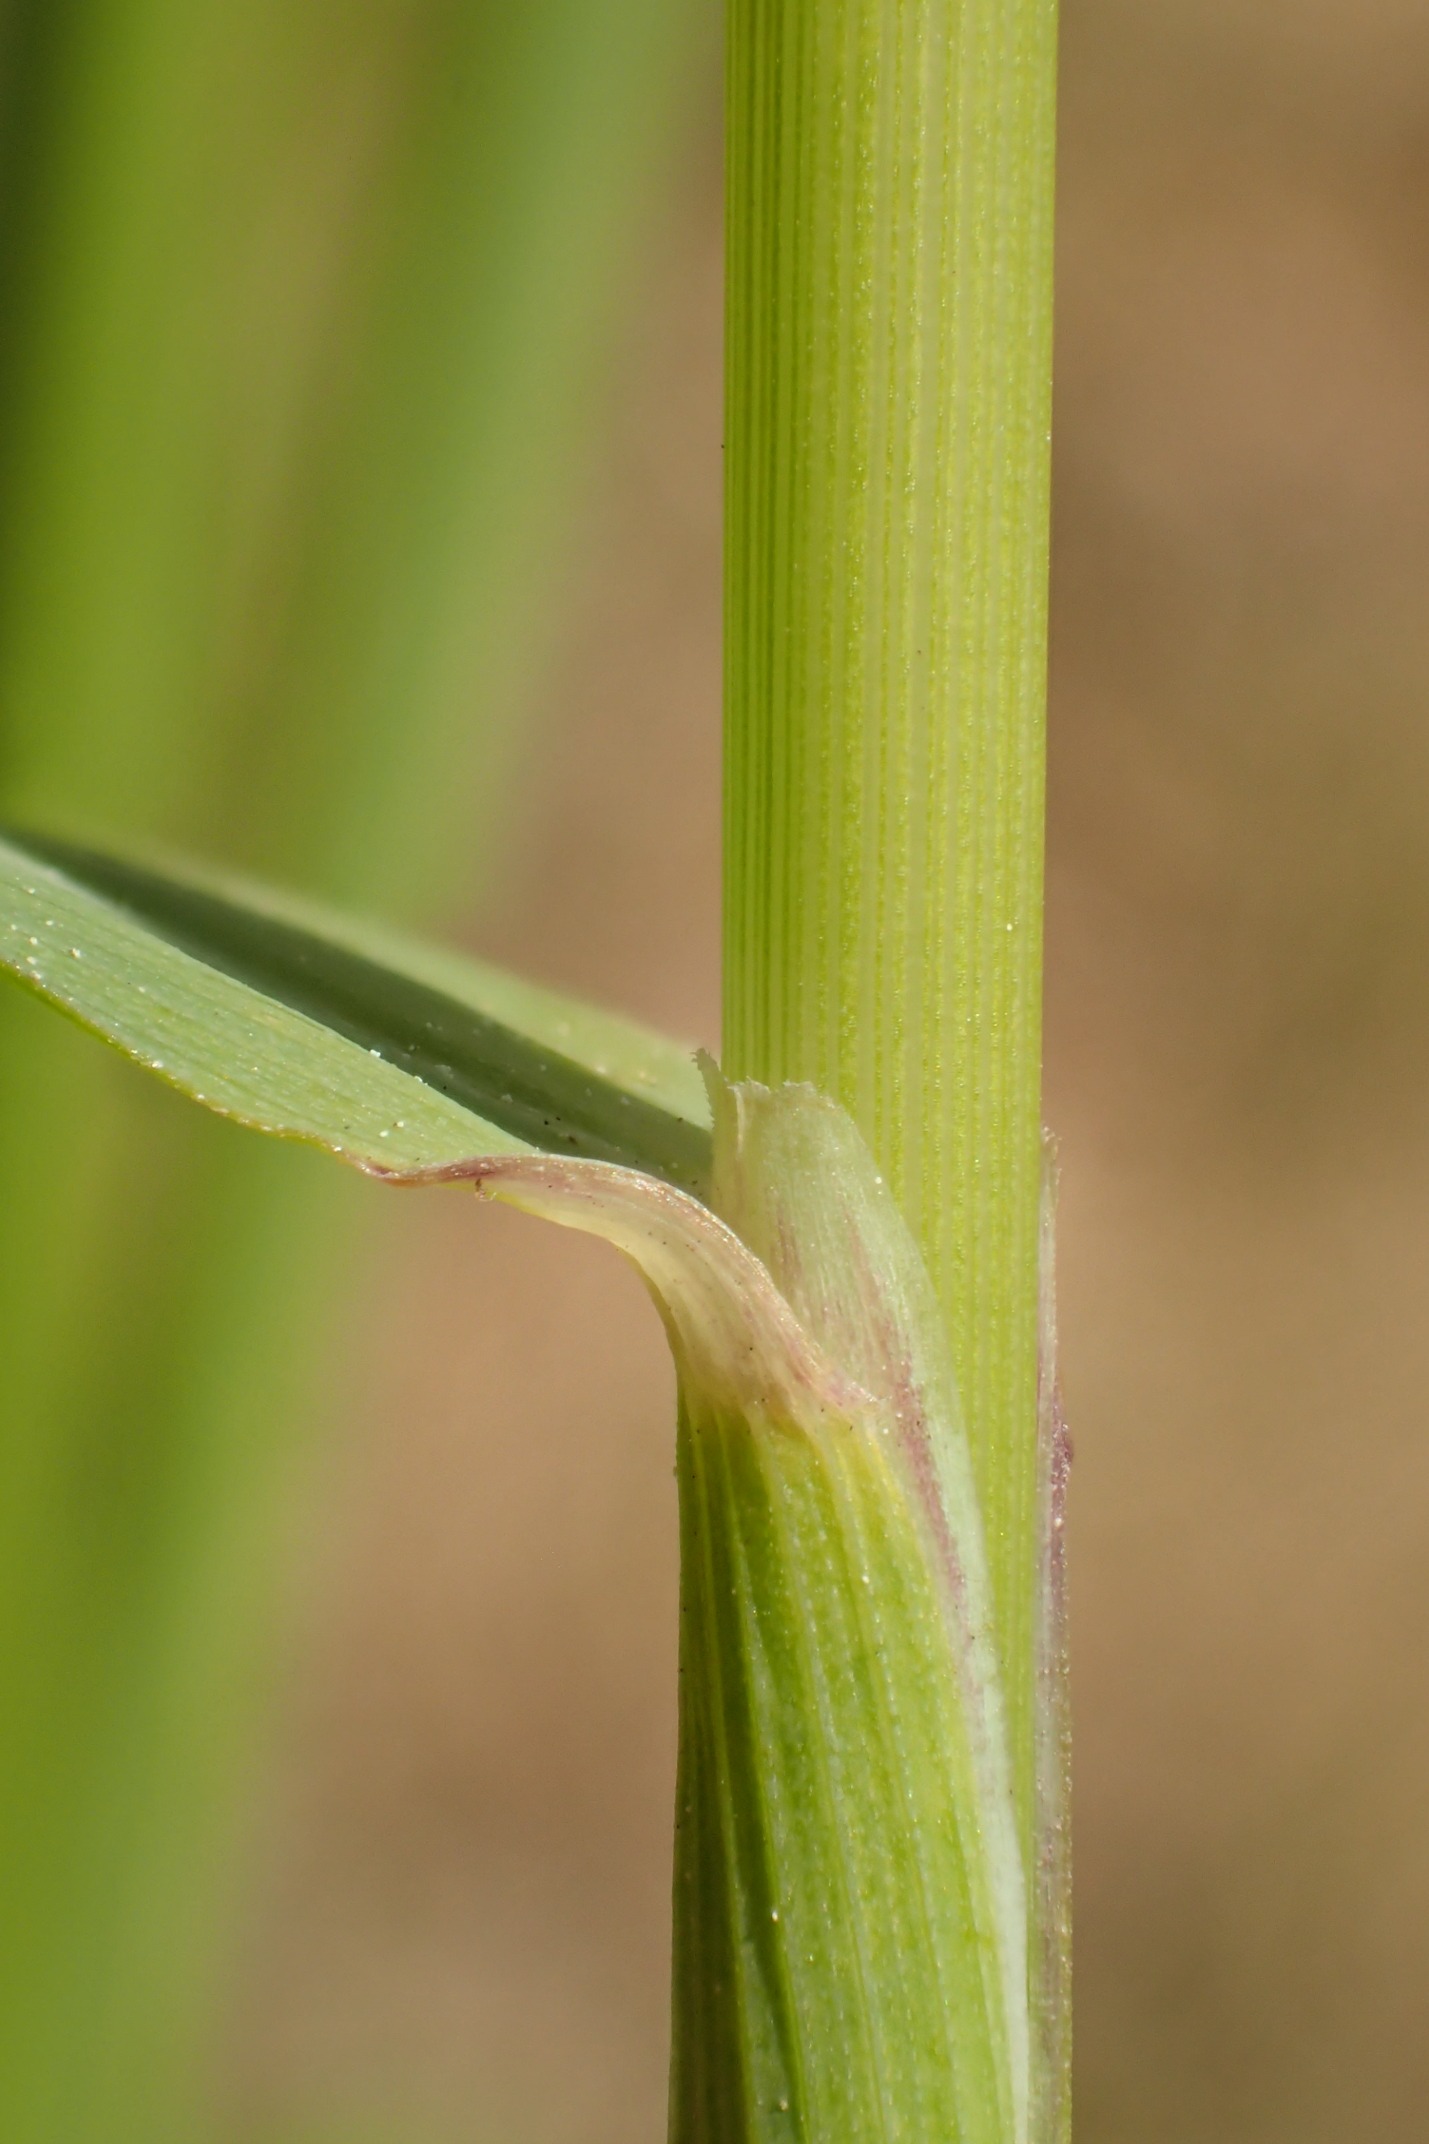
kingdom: Plantae
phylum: Tracheophyta
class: Liliopsida
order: Poales
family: Poaceae
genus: Arrhenatherum
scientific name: Arrhenatherum elatius
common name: Draphavre
